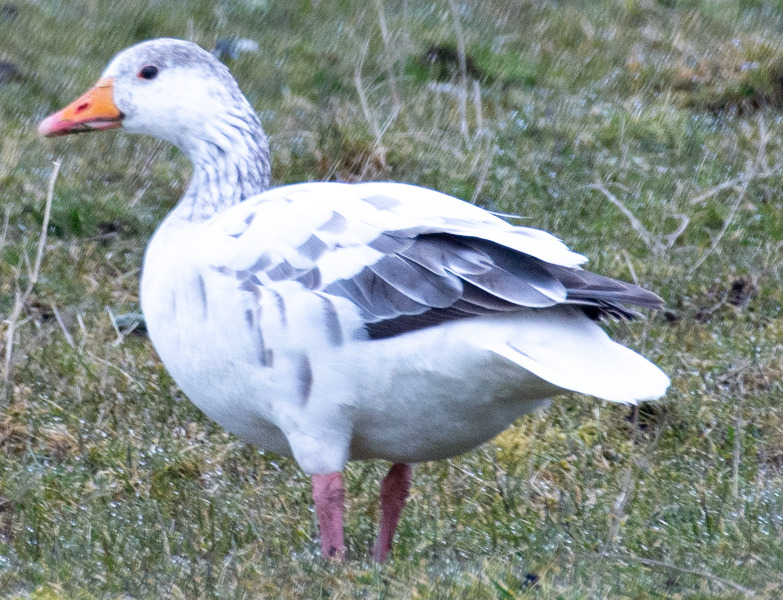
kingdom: Animalia
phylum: Chordata
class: Aves
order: Anseriformes
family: Anatidae
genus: Anser
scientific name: Anser anser
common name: Grågås
